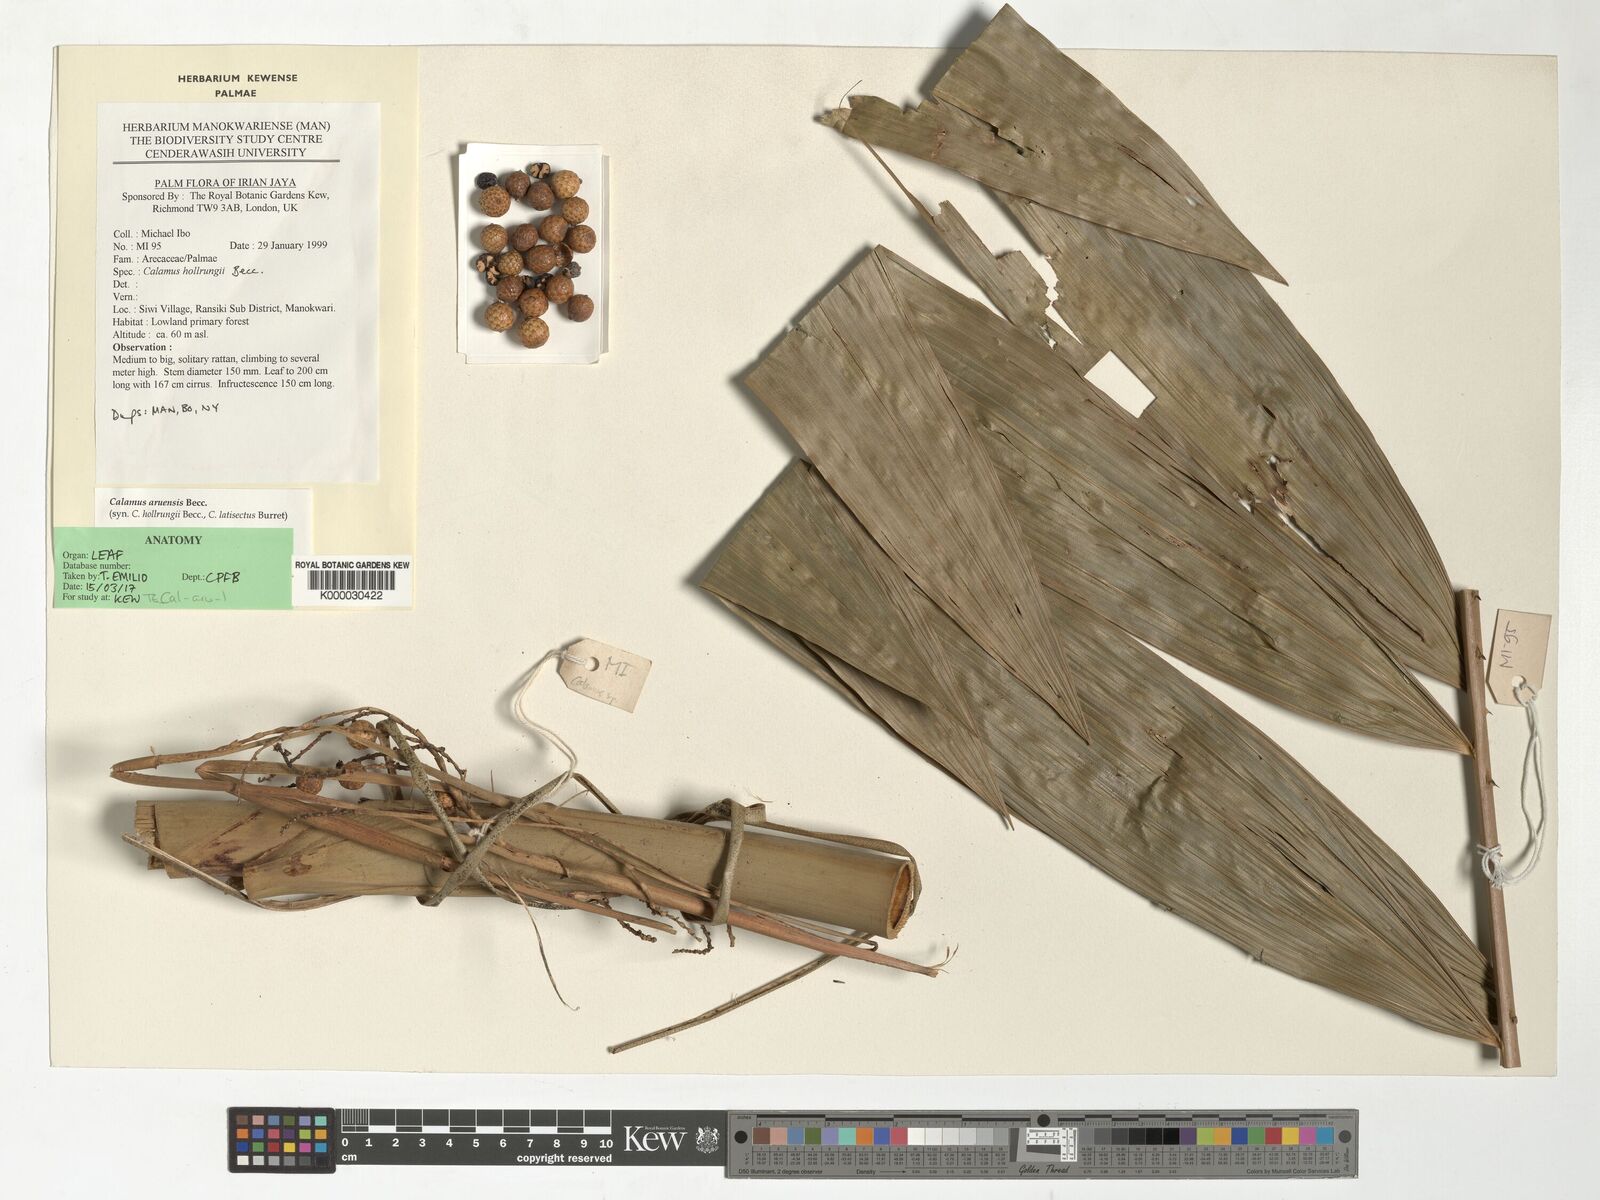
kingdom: Plantae
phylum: Tracheophyta
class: Liliopsida
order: Arecales
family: Arecaceae
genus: Calamus
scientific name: Calamus aruensis
